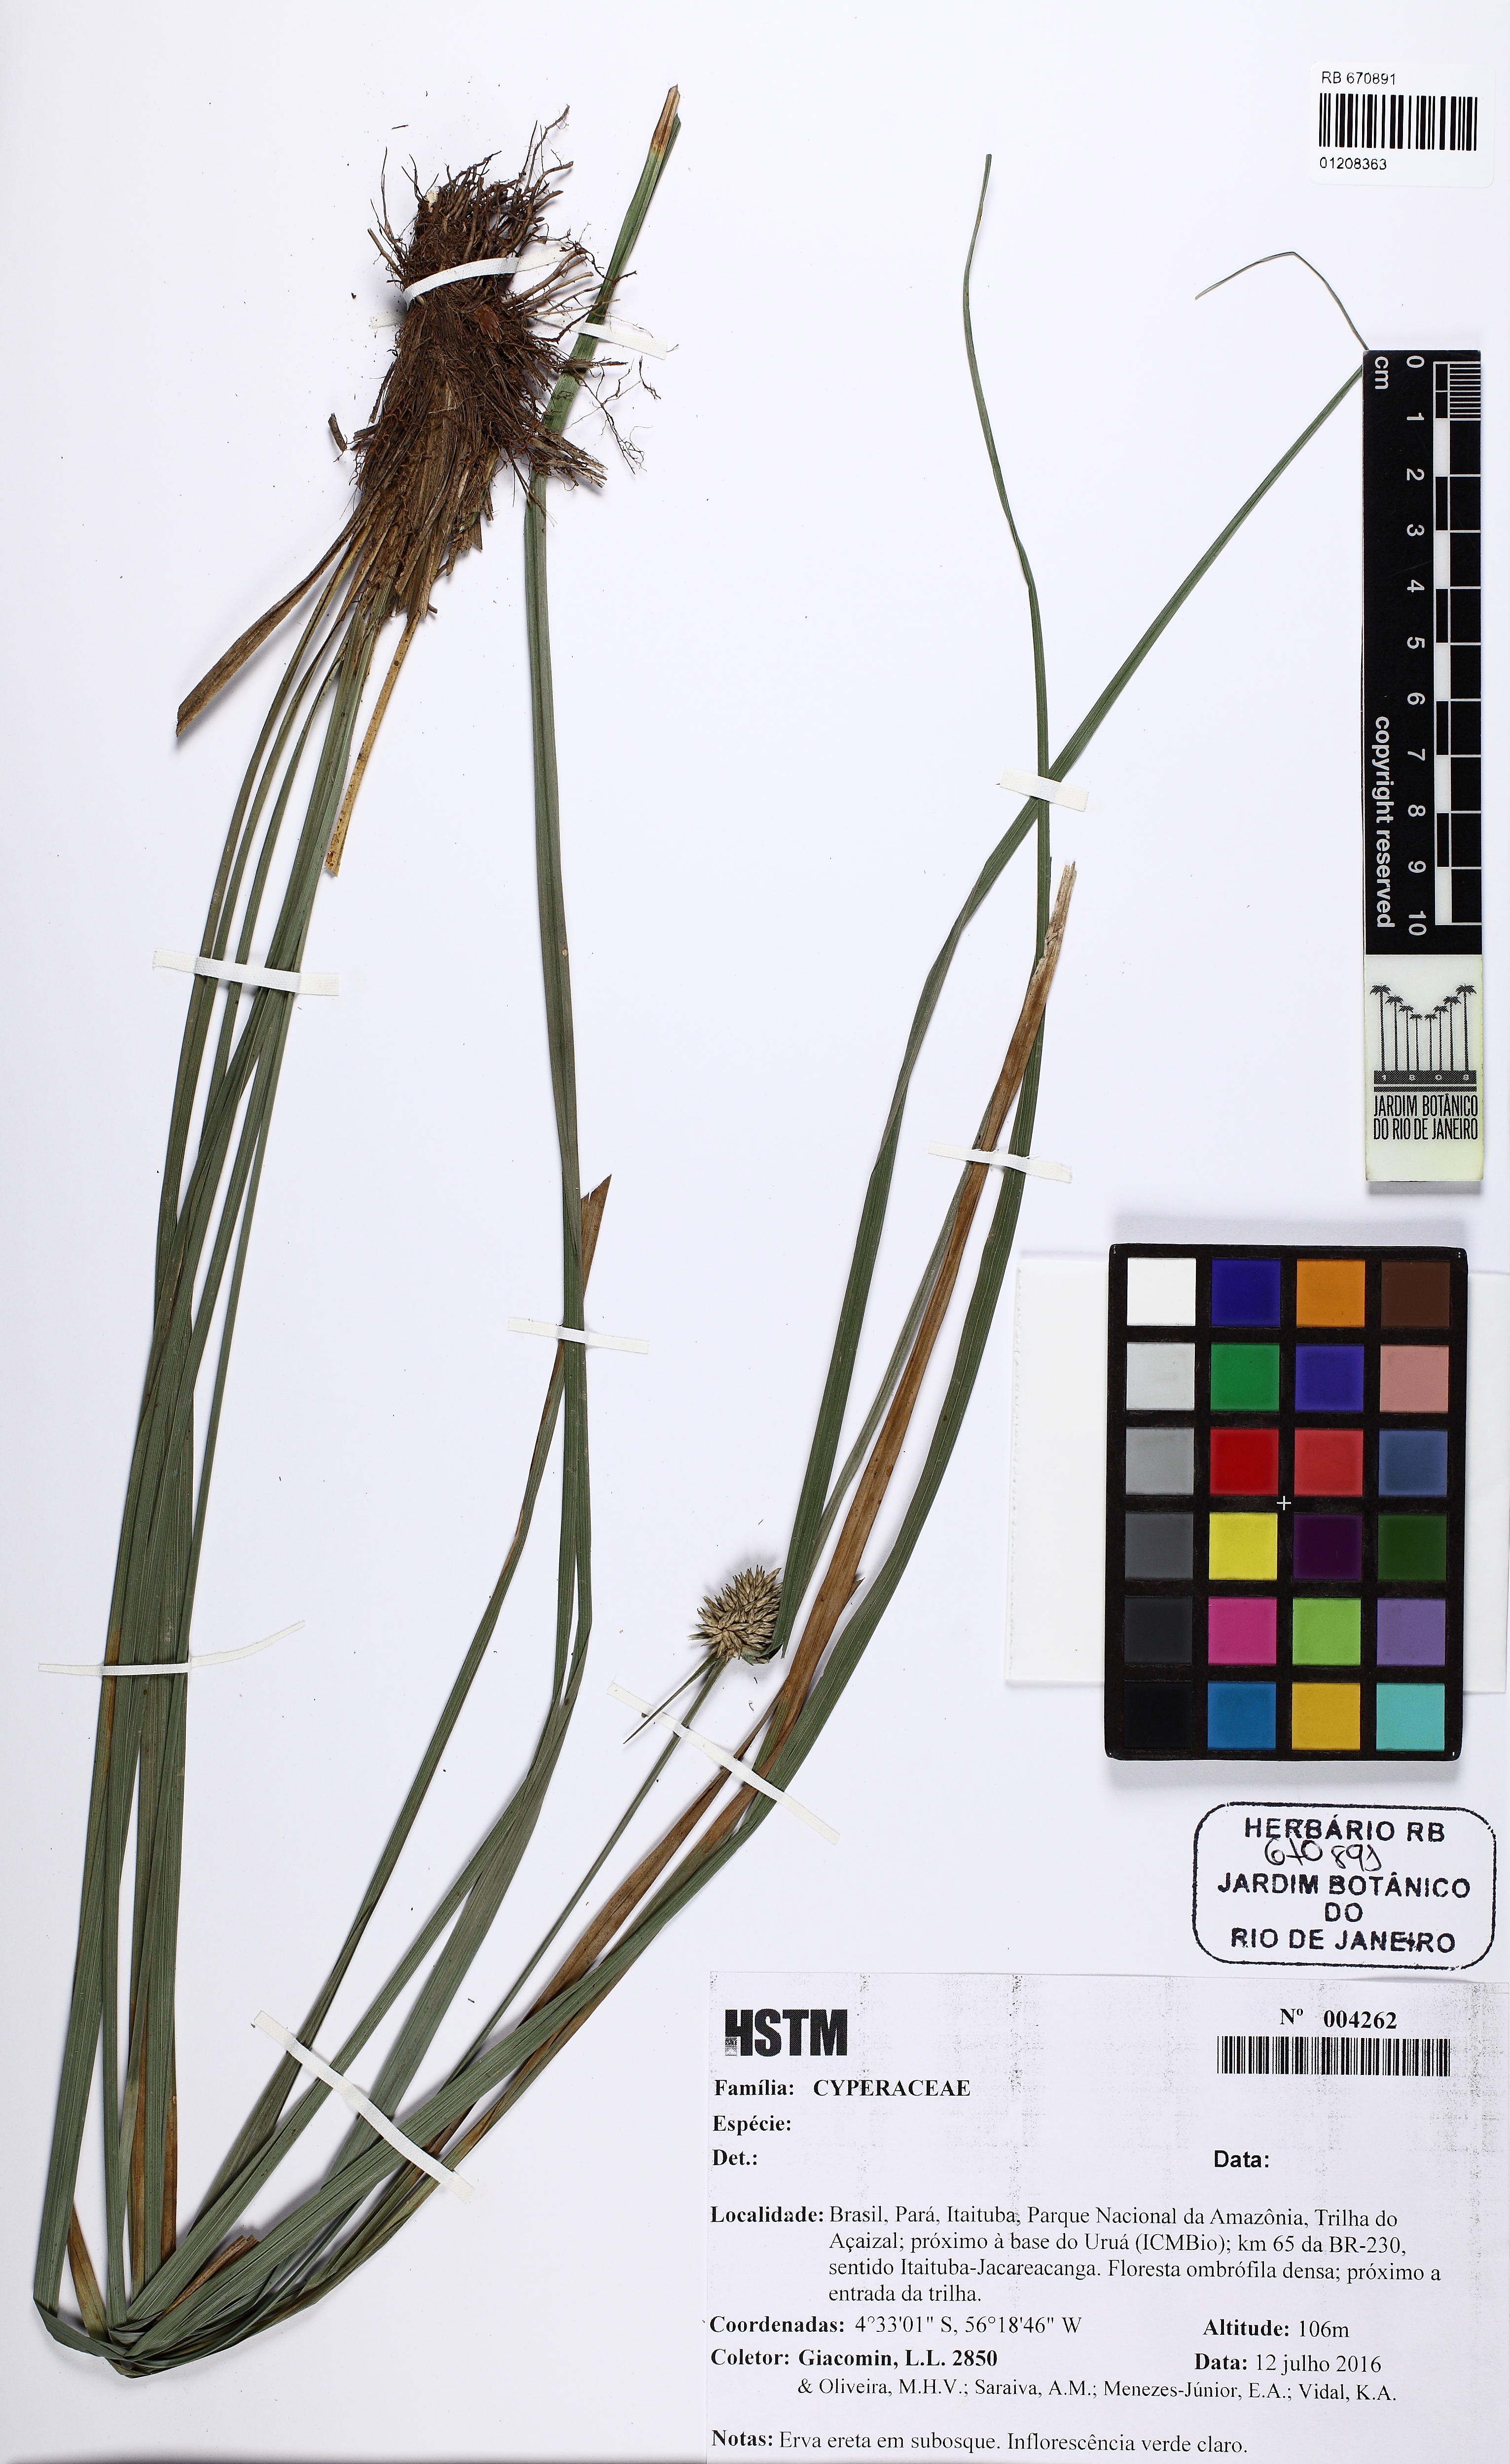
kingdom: Plantae
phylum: Tracheophyta
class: Liliopsida
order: Poales
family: Cyperaceae
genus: Rhynchospora
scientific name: Rhynchospora cephalotes
